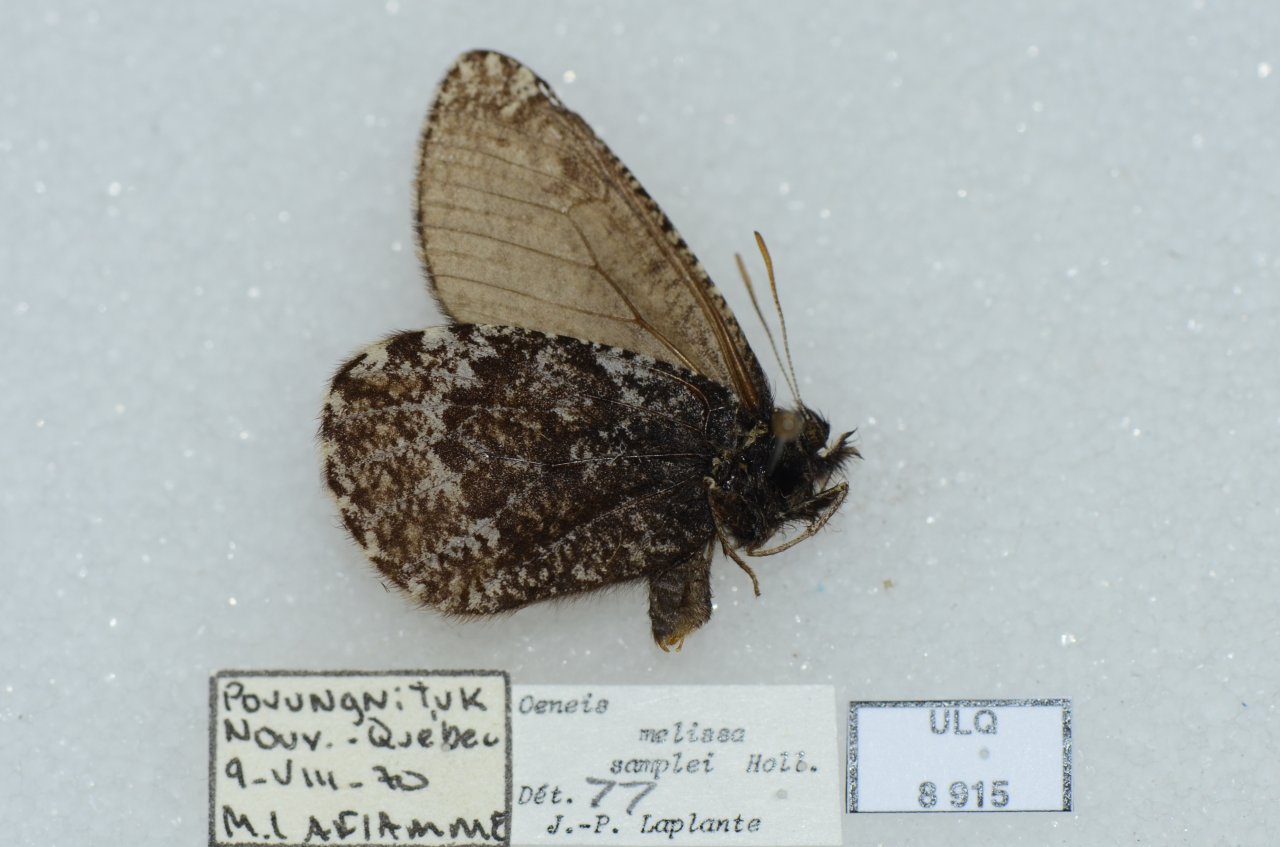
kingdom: Animalia
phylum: Arthropoda
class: Insecta
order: Lepidoptera
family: Nymphalidae
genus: Oeneis
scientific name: Oeneis melissa
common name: Melissa Arctic
